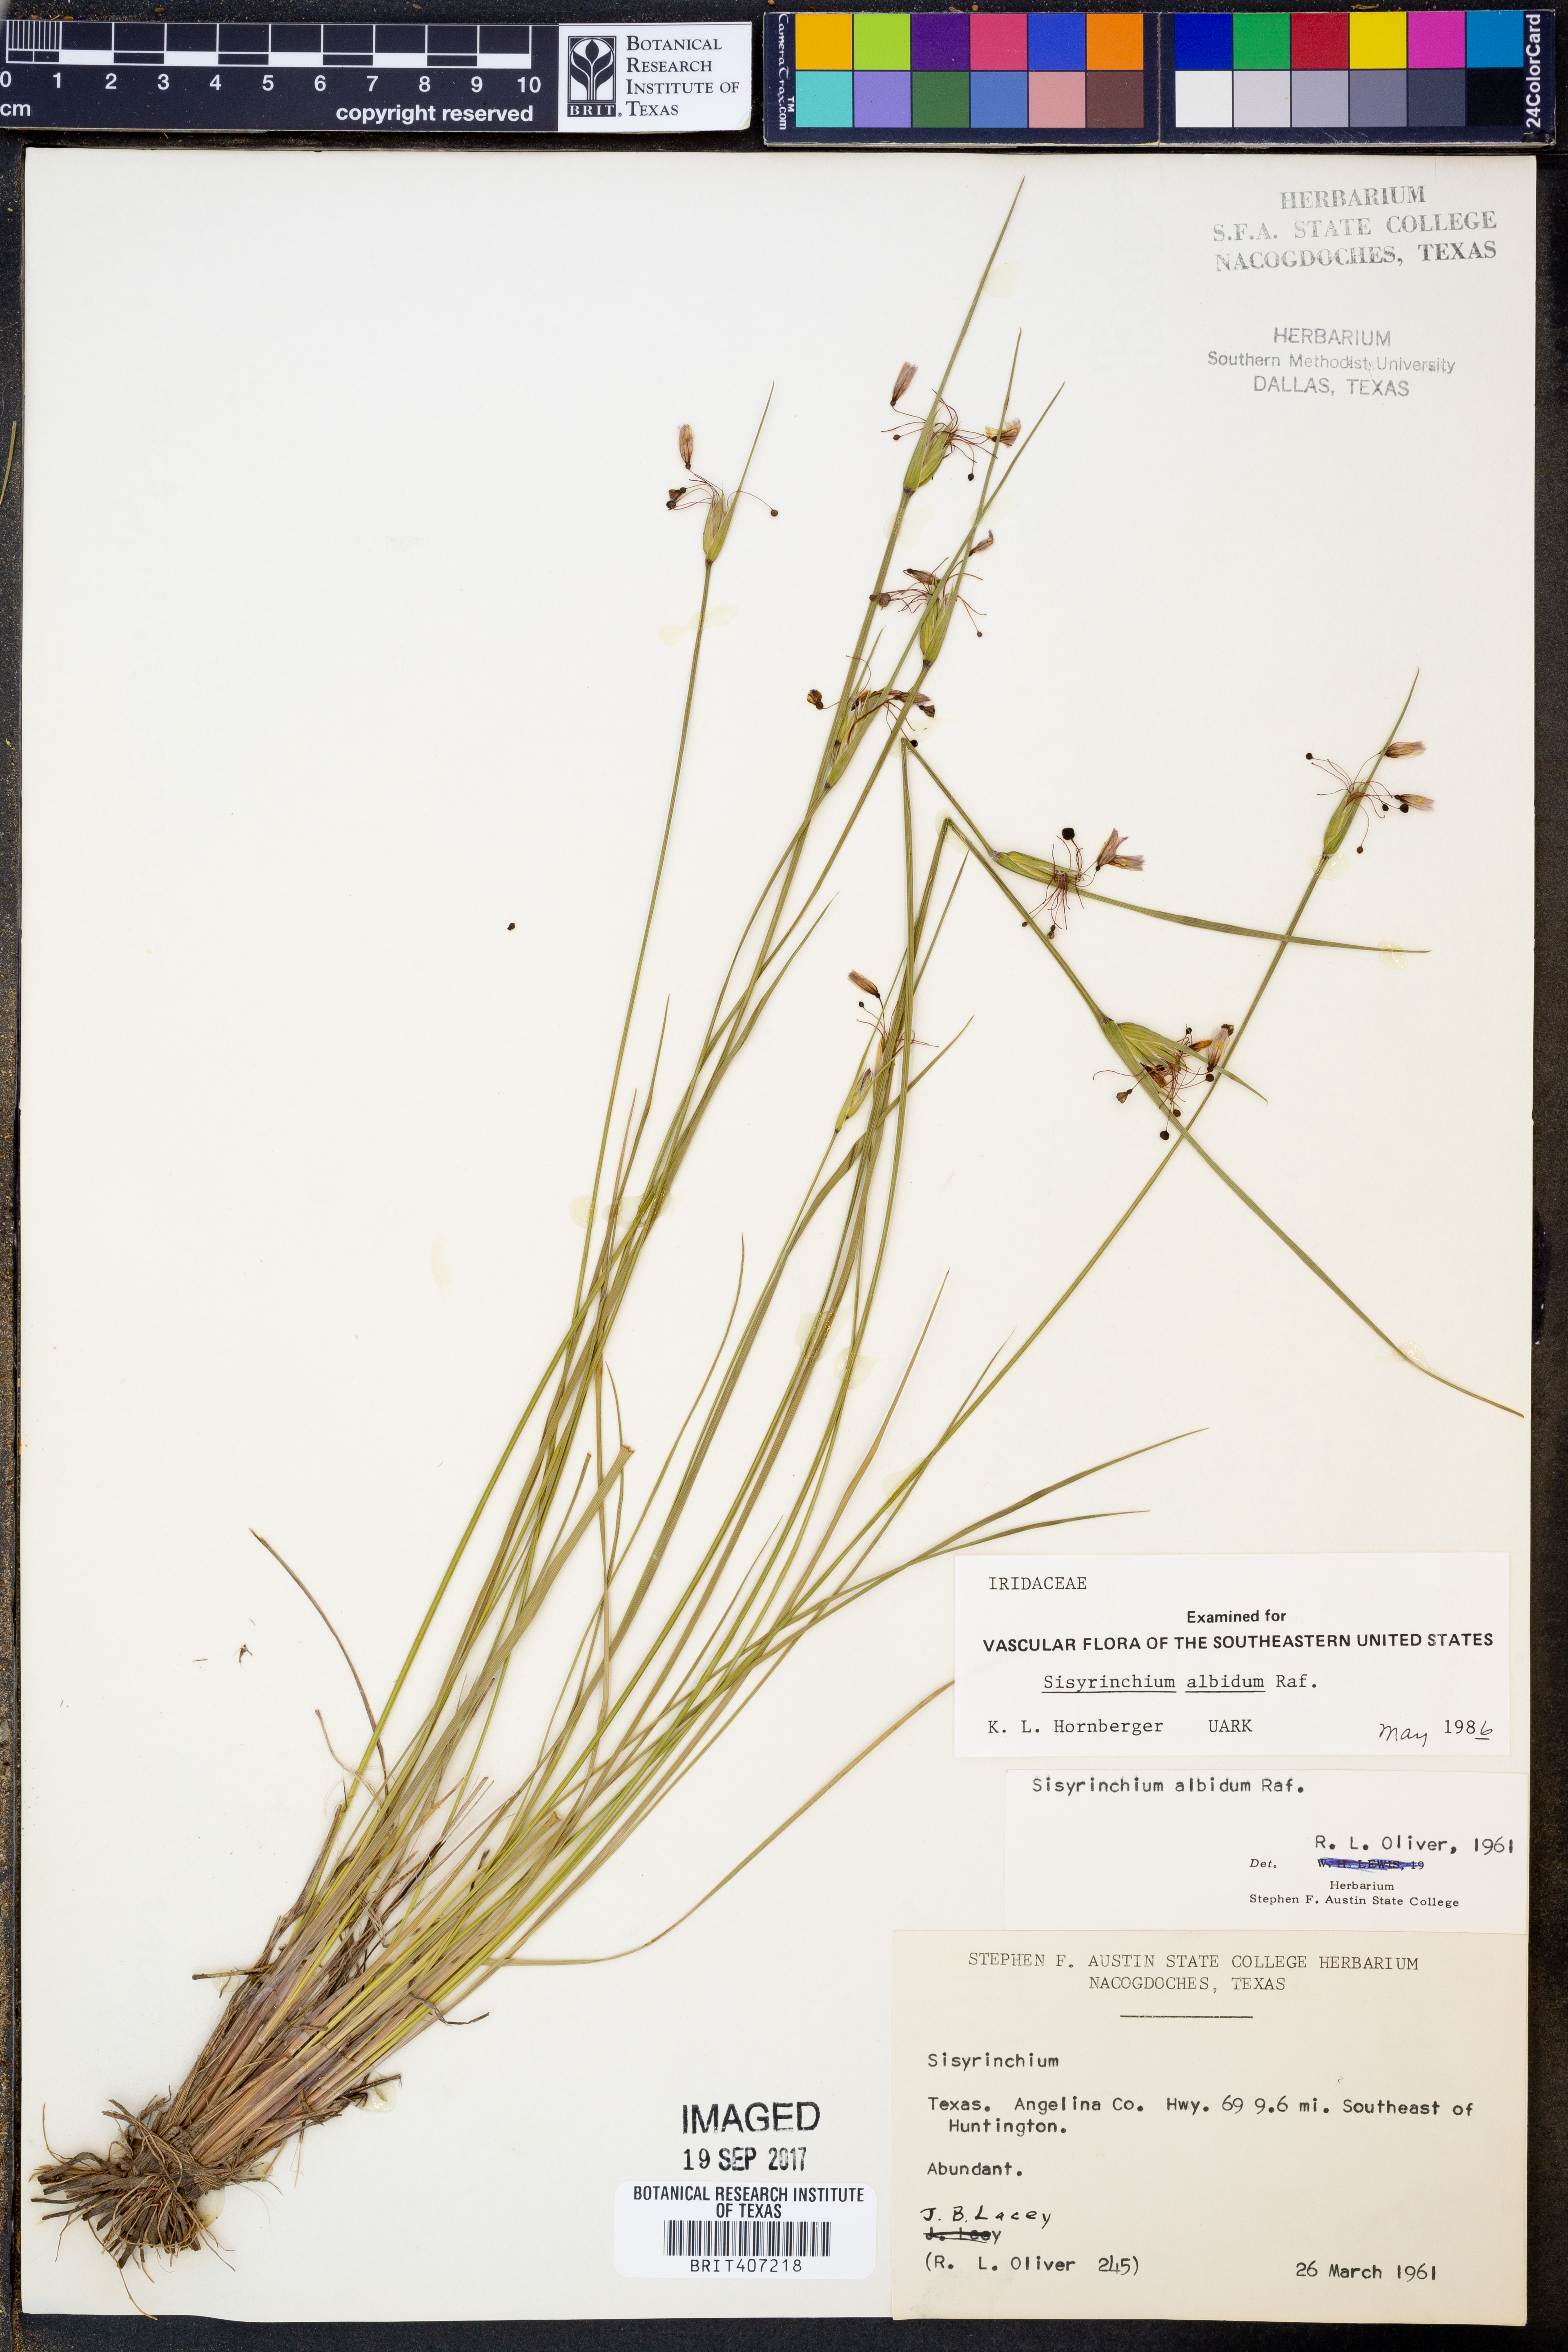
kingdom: Plantae
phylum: Tracheophyta
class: Liliopsida
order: Asparagales
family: Iridaceae
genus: Sisyrinchium
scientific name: Sisyrinchium albidum
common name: Pale blue-eyed-grass
